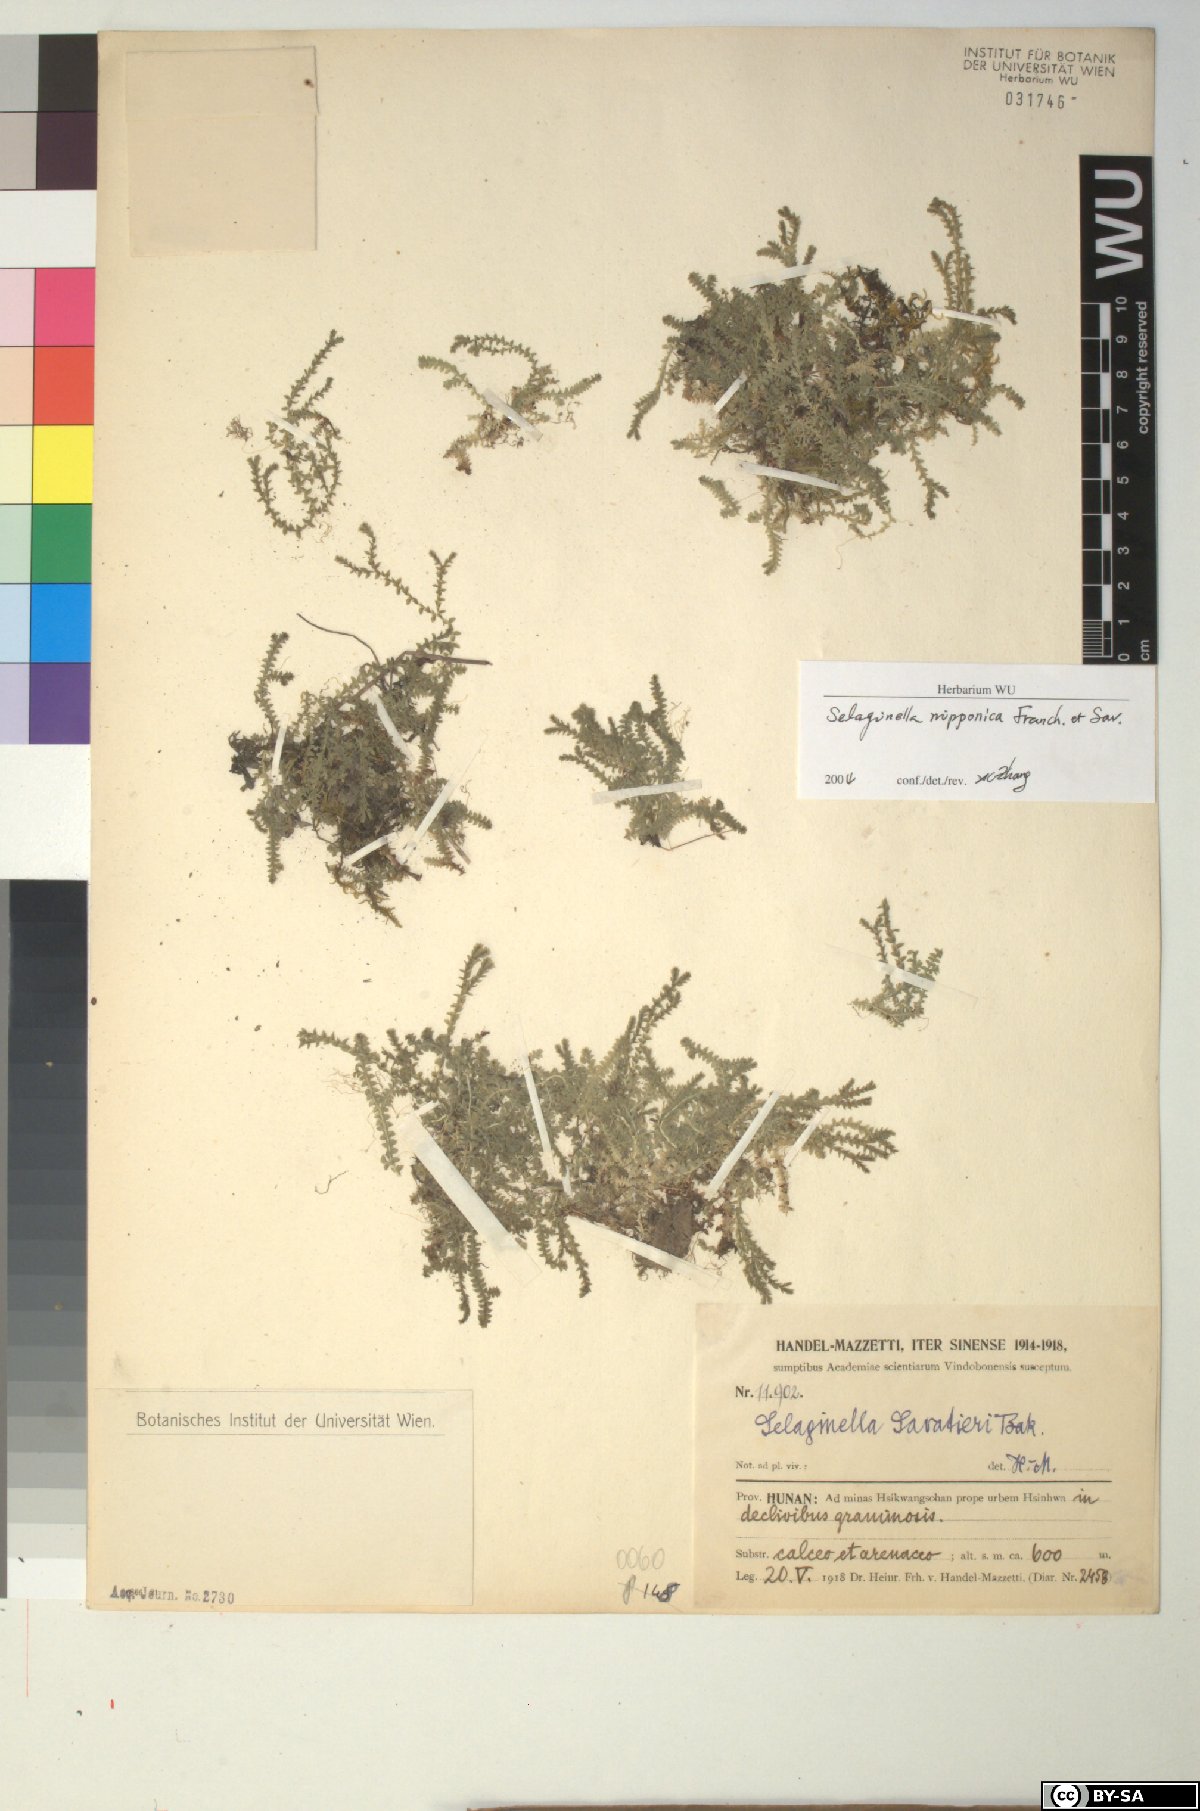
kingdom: Plantae
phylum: Tracheophyta
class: Lycopodiopsida
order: Selaginellales
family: Selaginellaceae
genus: Selaginella
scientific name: Selaginella nipponica
